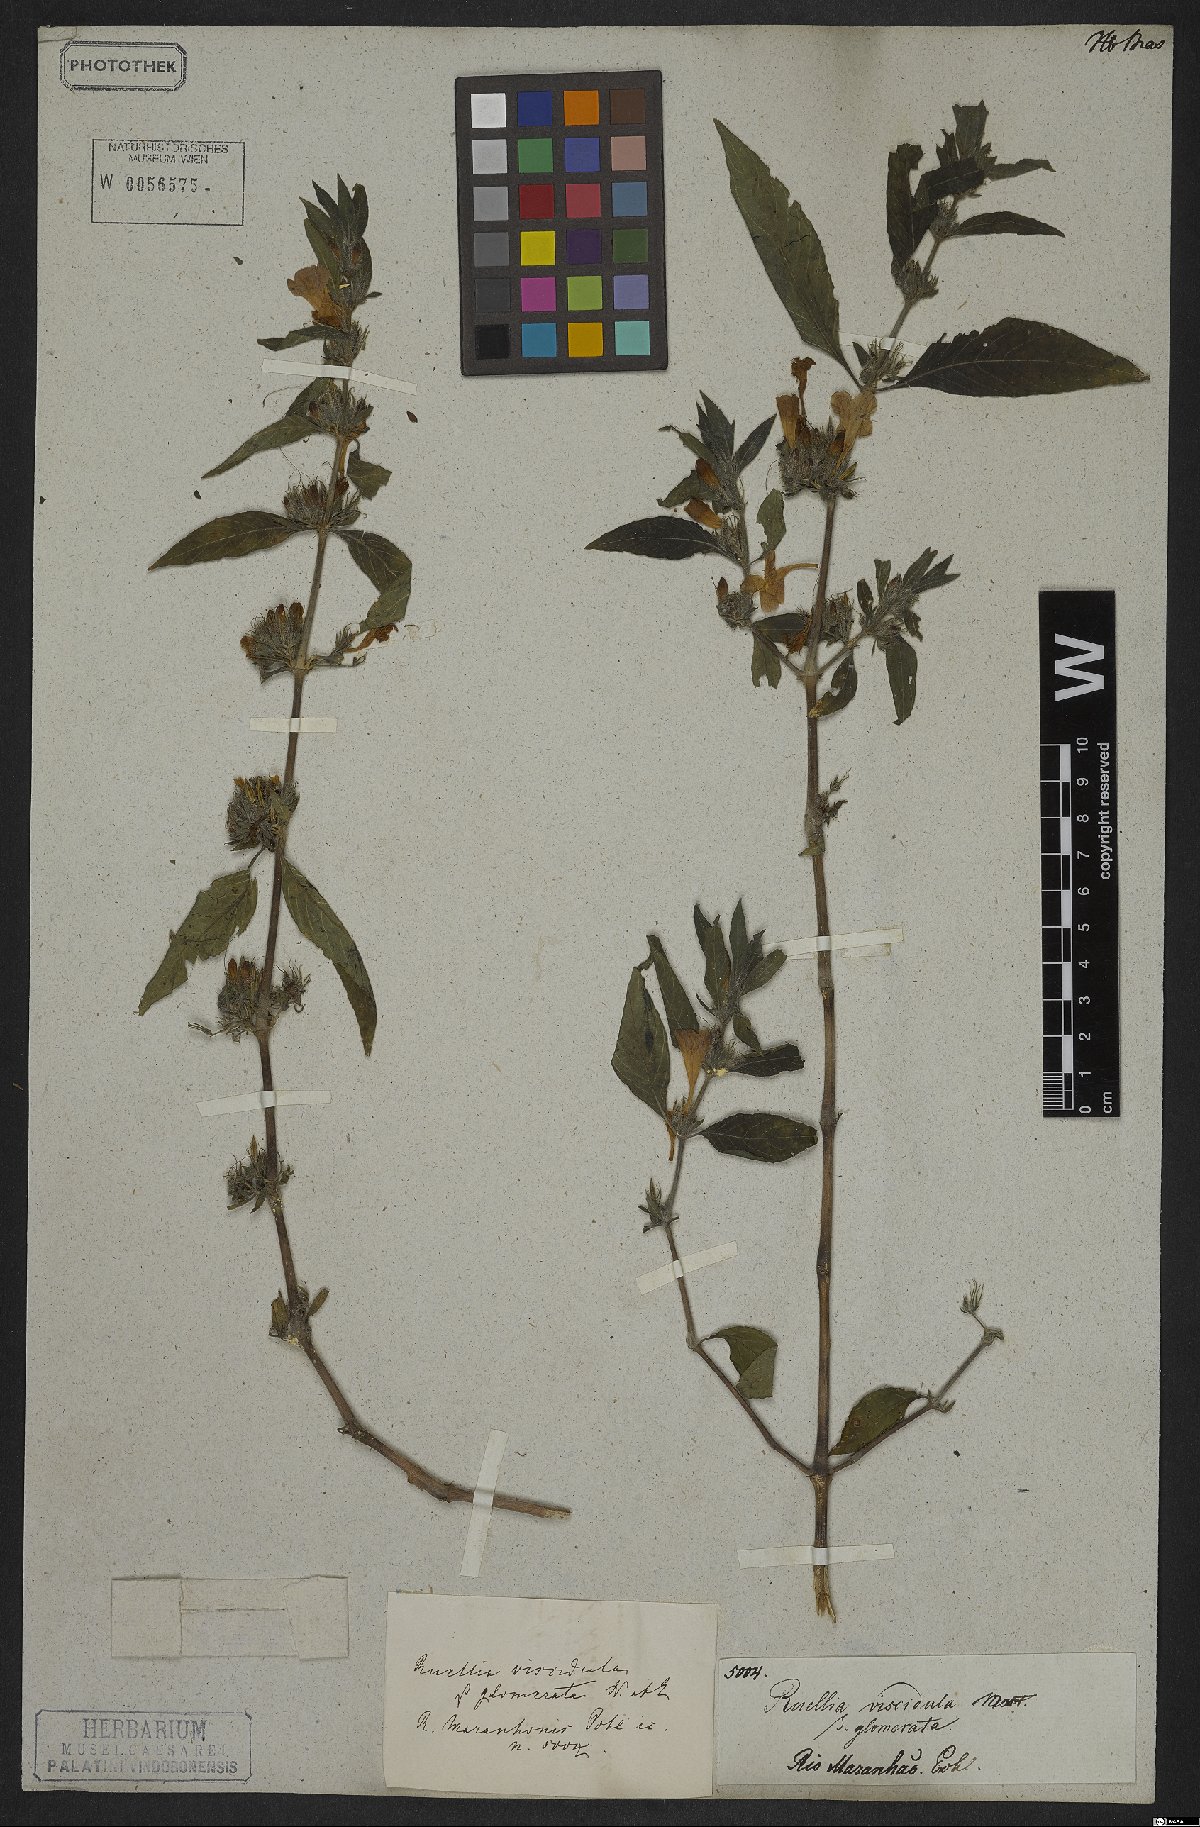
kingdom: Plantae
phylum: Tracheophyta
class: Magnoliopsida
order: Lamiales
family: Acanthaceae
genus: Ruellia
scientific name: Ruellia viscidula
